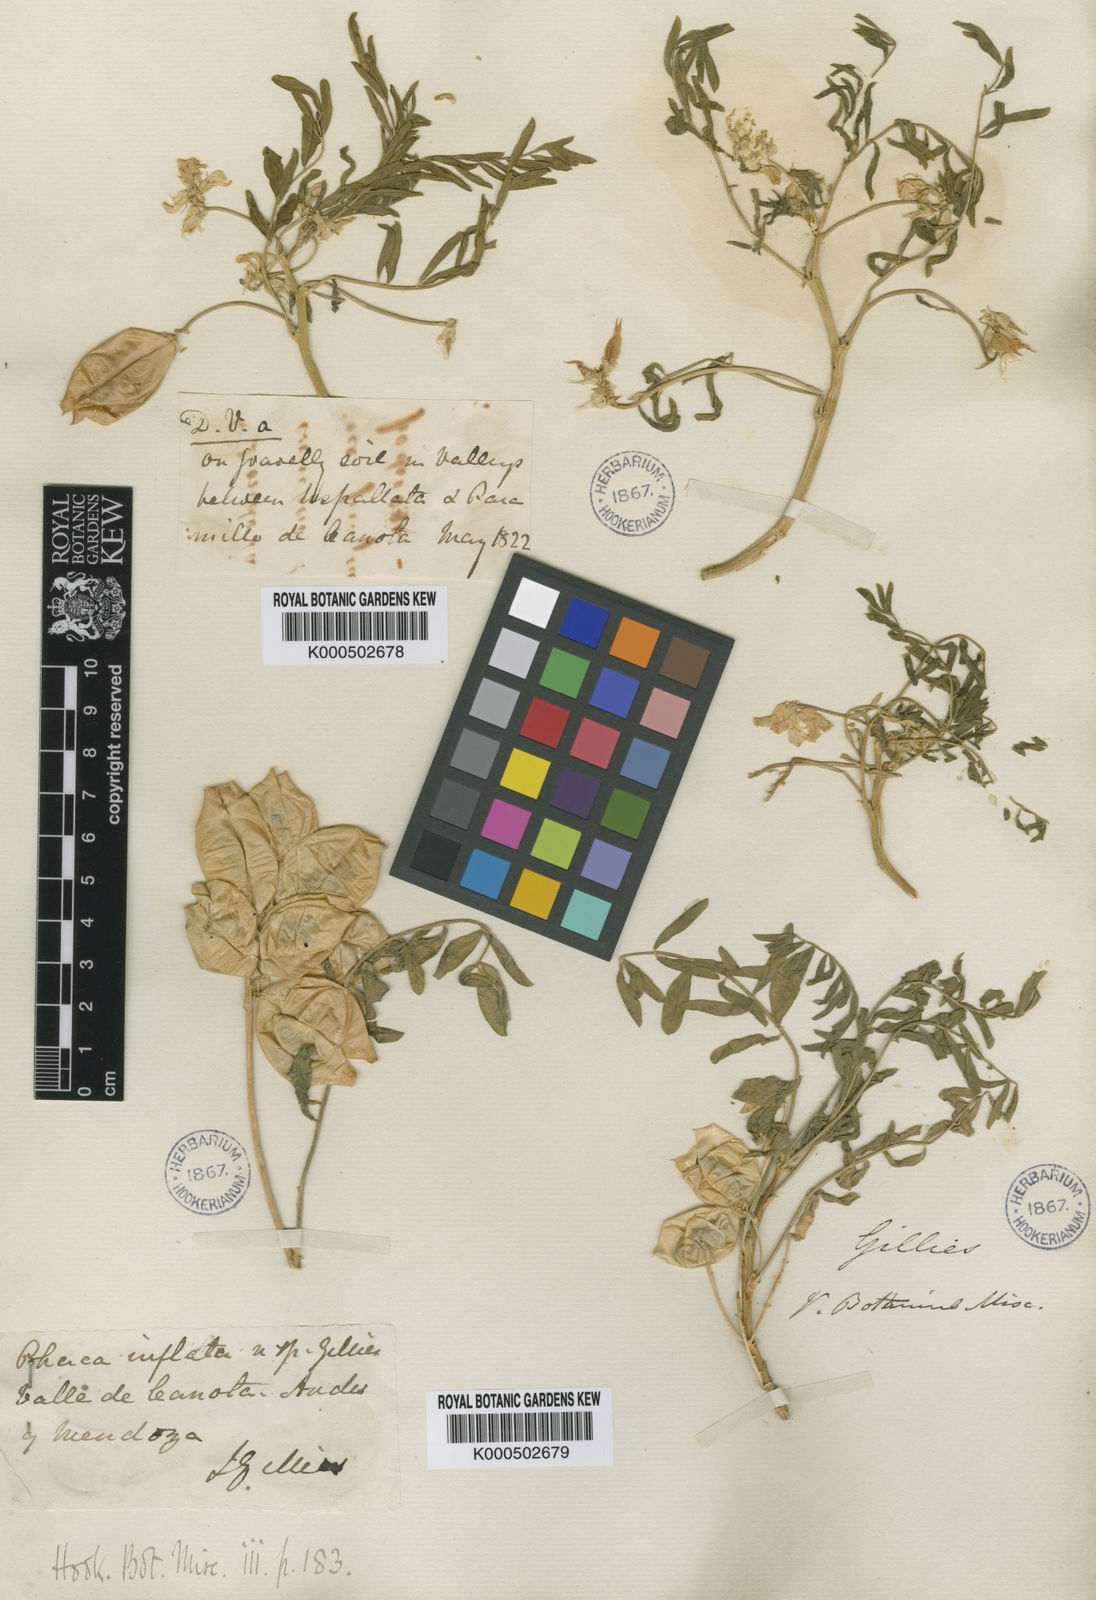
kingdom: Plantae
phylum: Tracheophyta
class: Magnoliopsida
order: Fabales
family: Fabaceae
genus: Astragalus
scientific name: Astragalus pehuenches
